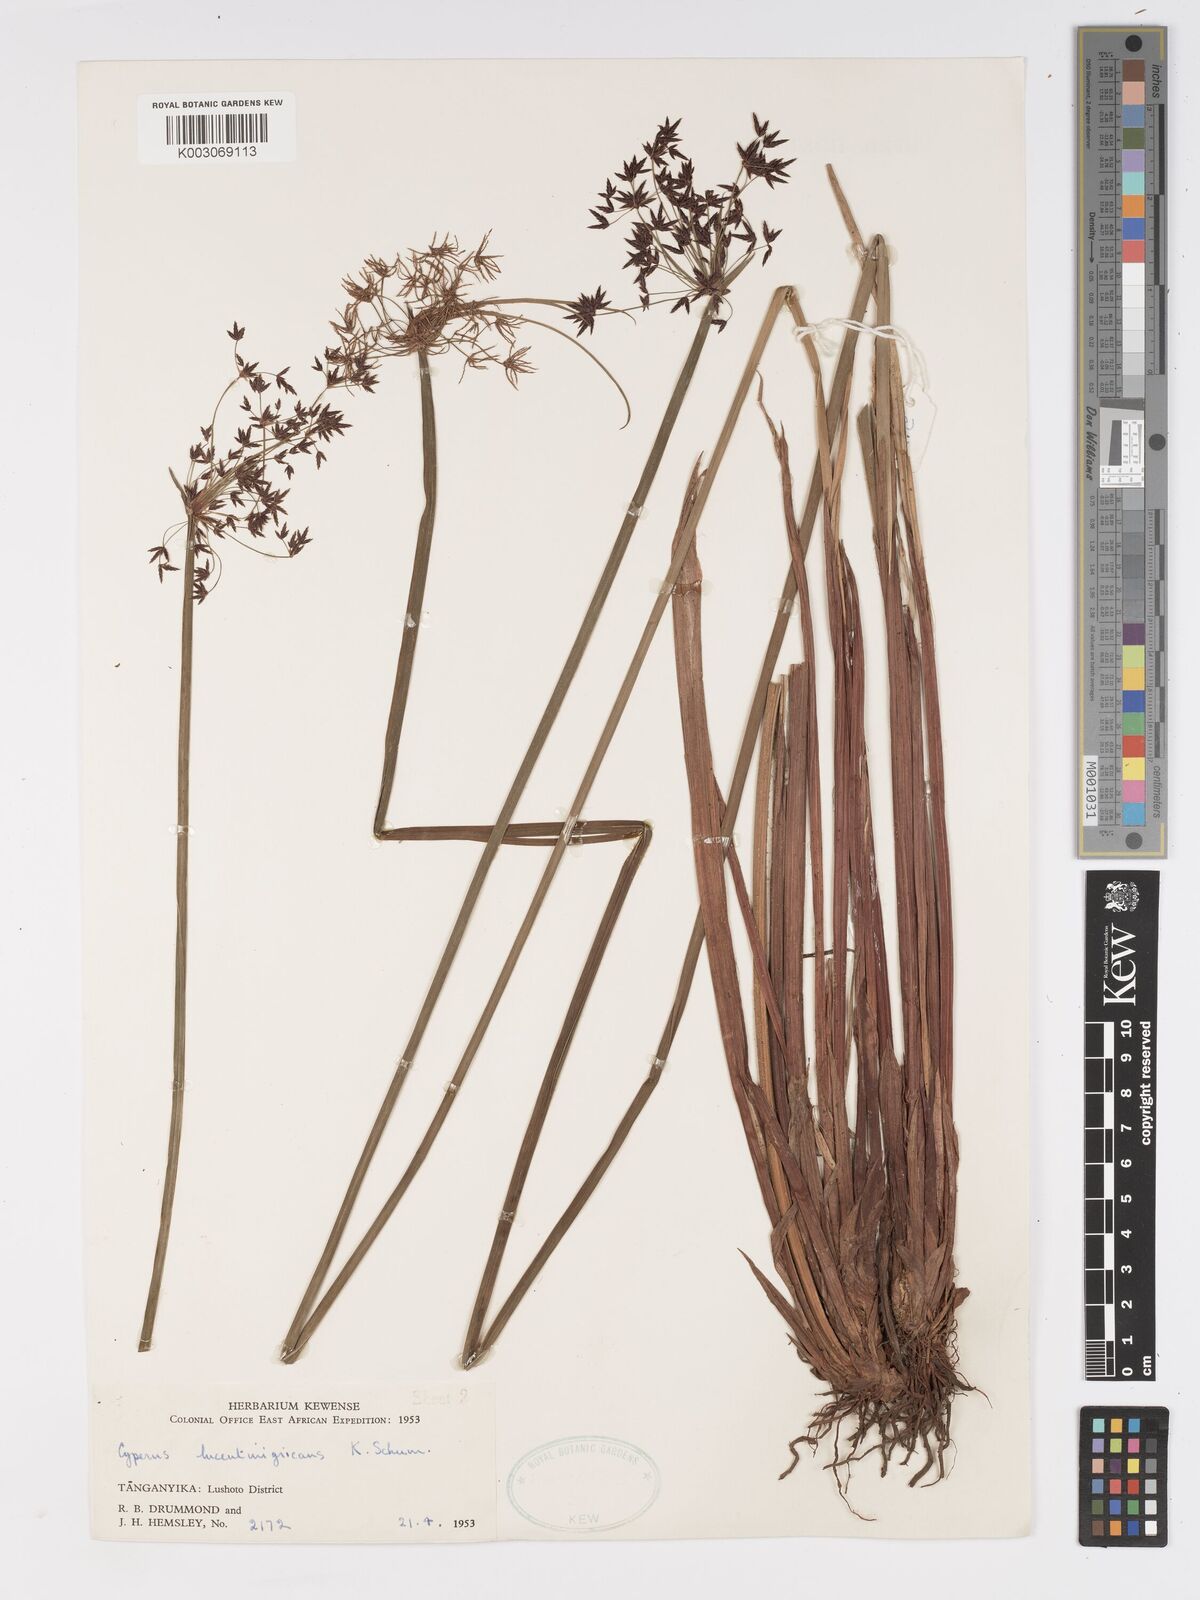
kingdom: Plantae
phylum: Tracheophyta
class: Liliopsida
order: Poales
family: Cyperaceae
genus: Cyperus
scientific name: Cyperus platycaulis
